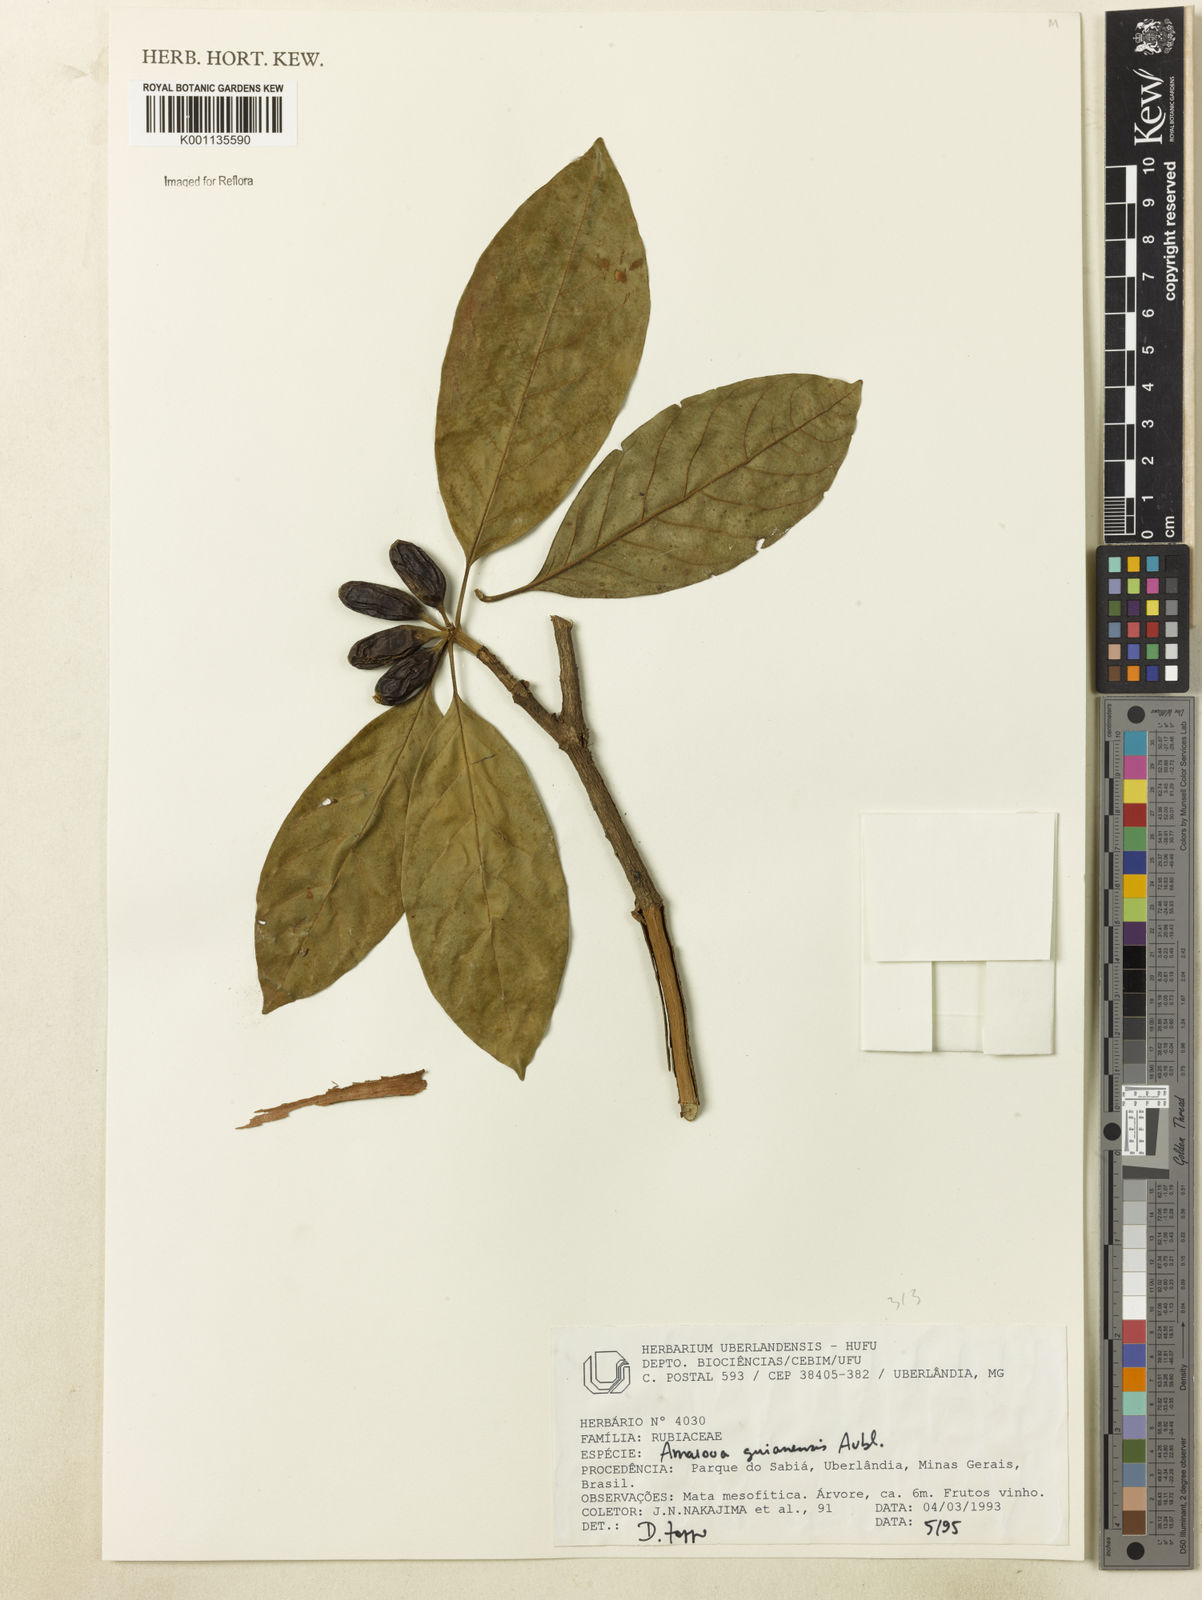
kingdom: Plantae
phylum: Tracheophyta
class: Magnoliopsida
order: Gentianales
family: Rubiaceae
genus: Amaioua
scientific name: Amaioua intermedia
